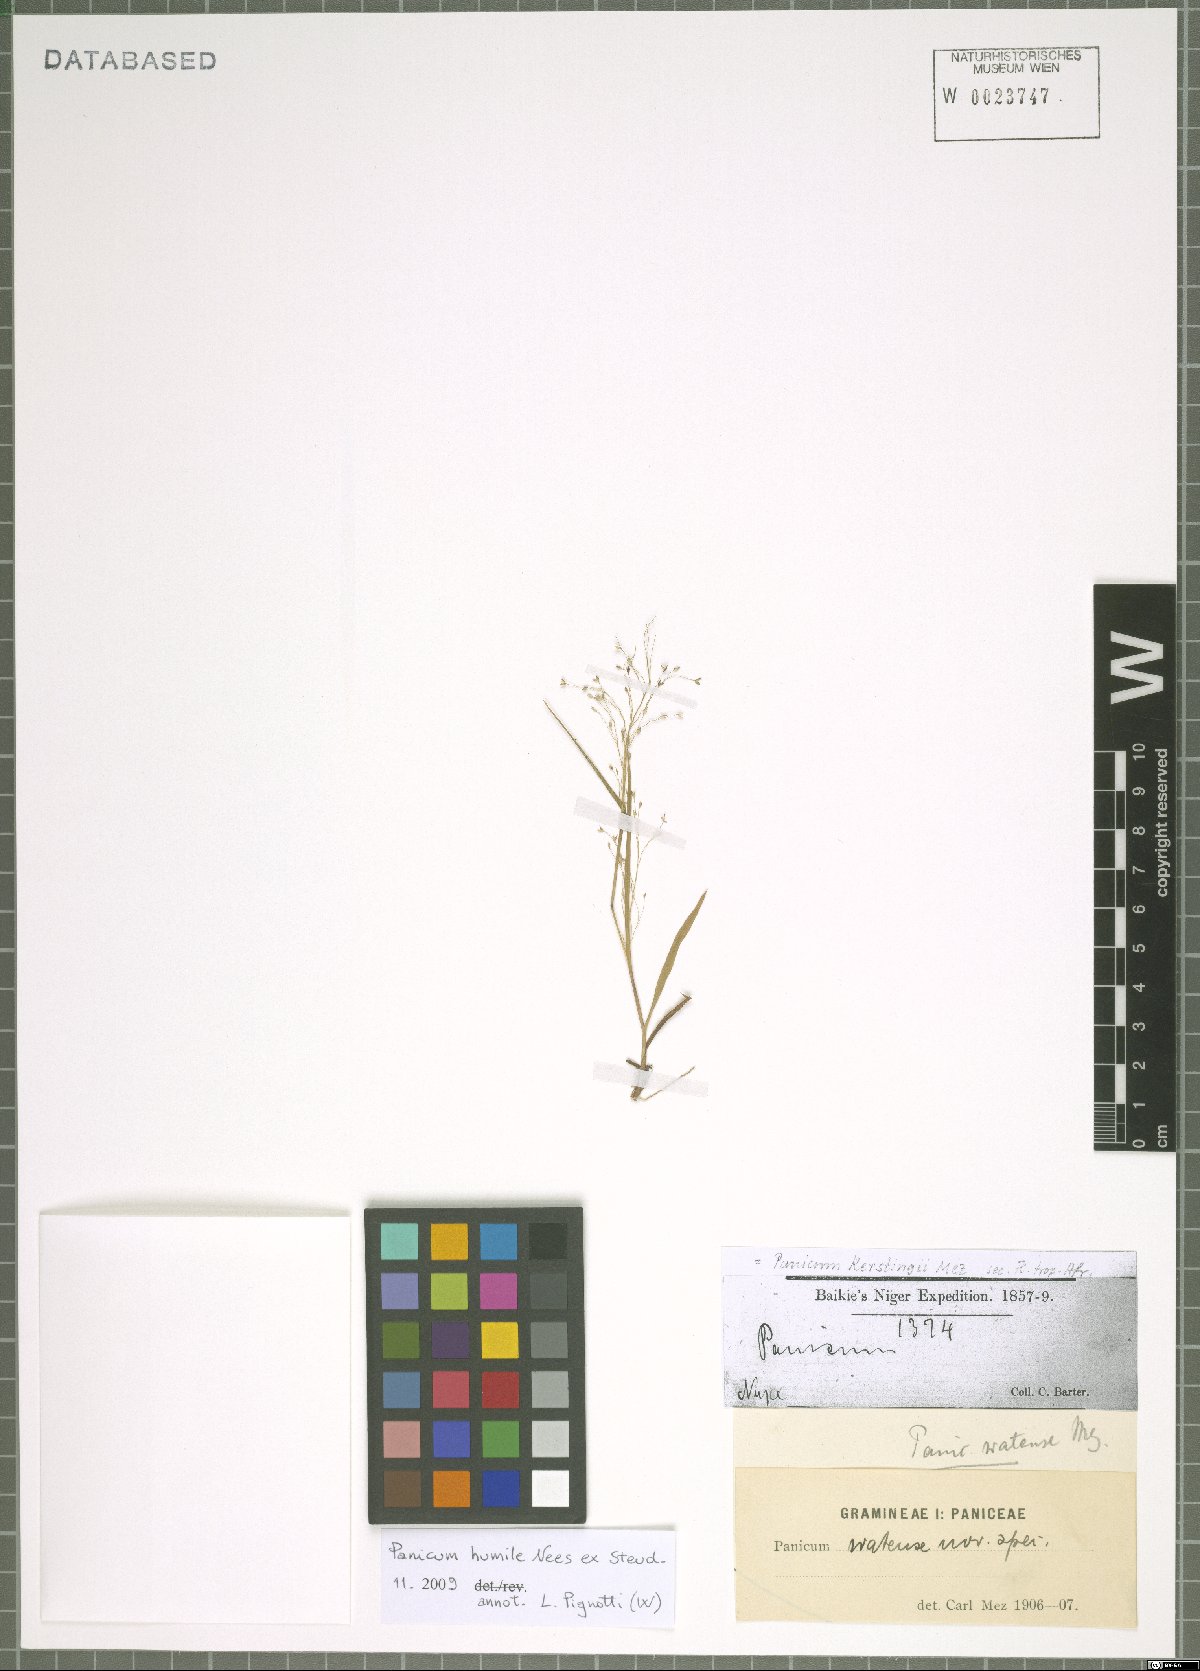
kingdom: Plantae
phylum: Tracheophyta
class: Liliopsida
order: Poales
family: Poaceae
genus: Panicum
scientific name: Panicum humile
